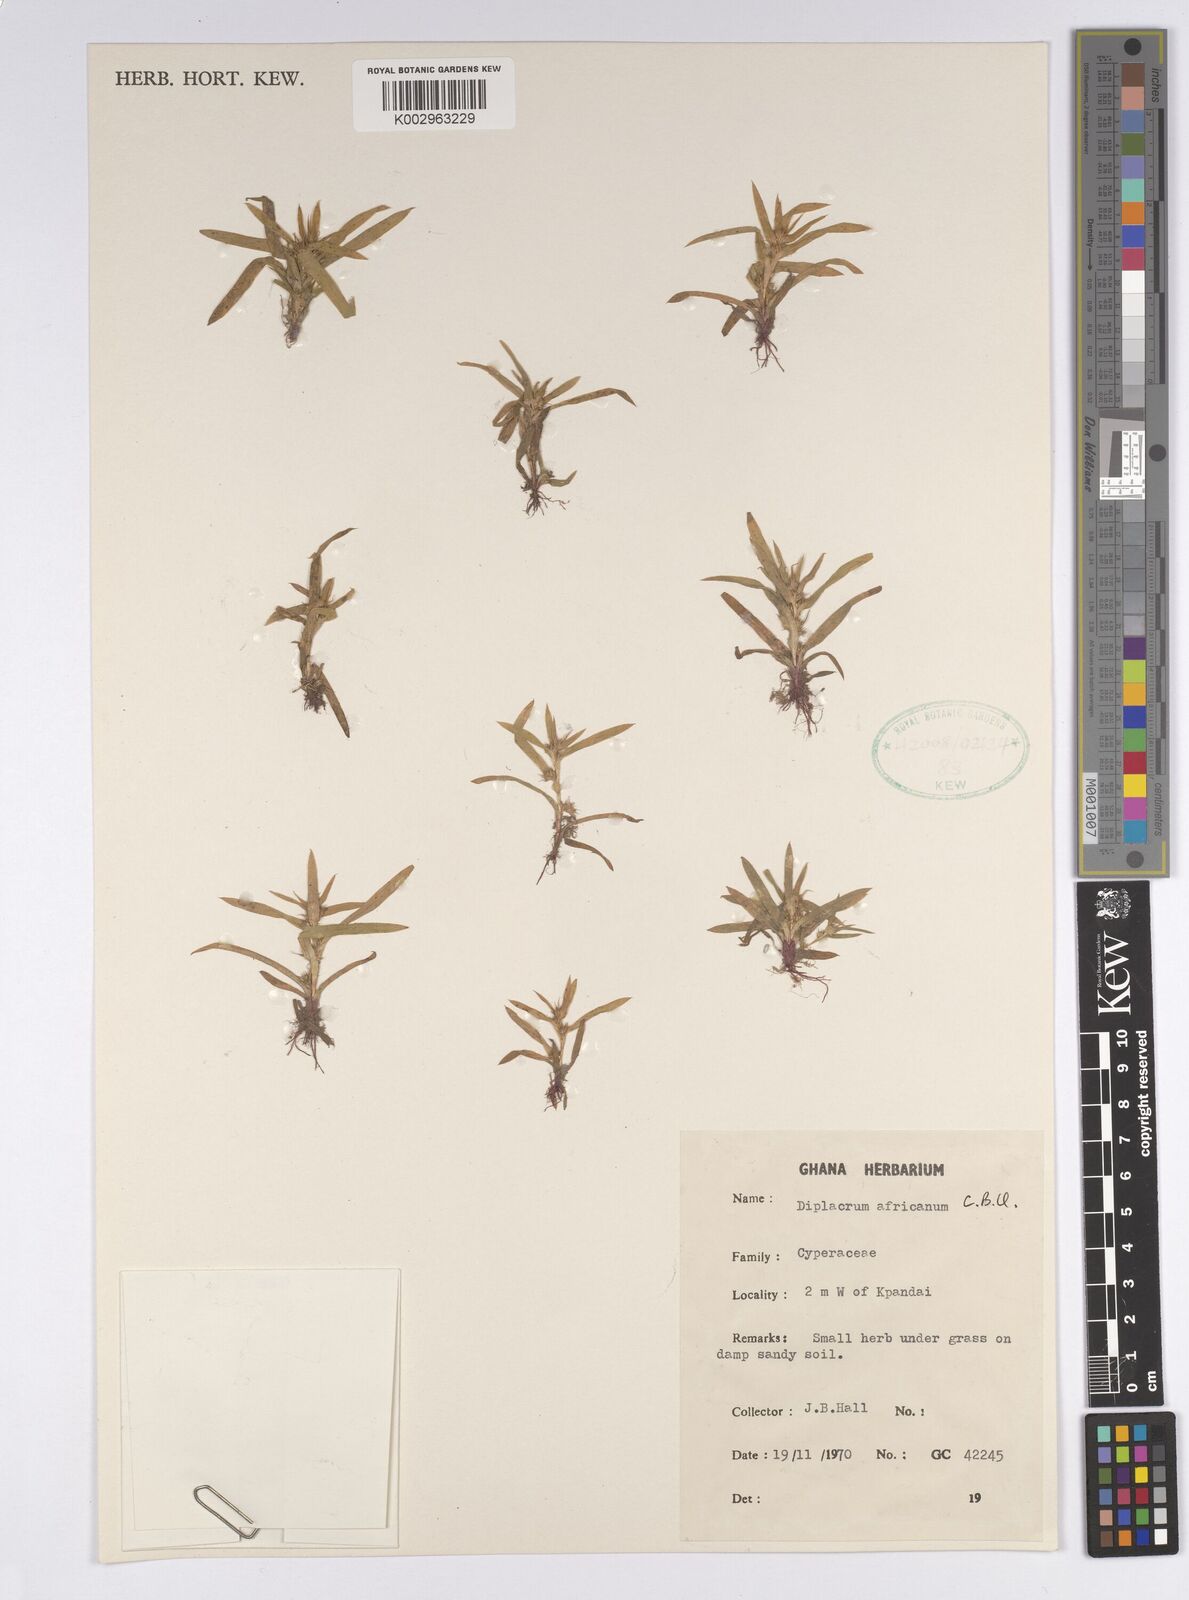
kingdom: Plantae
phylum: Tracheophyta
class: Liliopsida
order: Poales
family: Cyperaceae
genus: Diplacrum
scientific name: Diplacrum africanum
